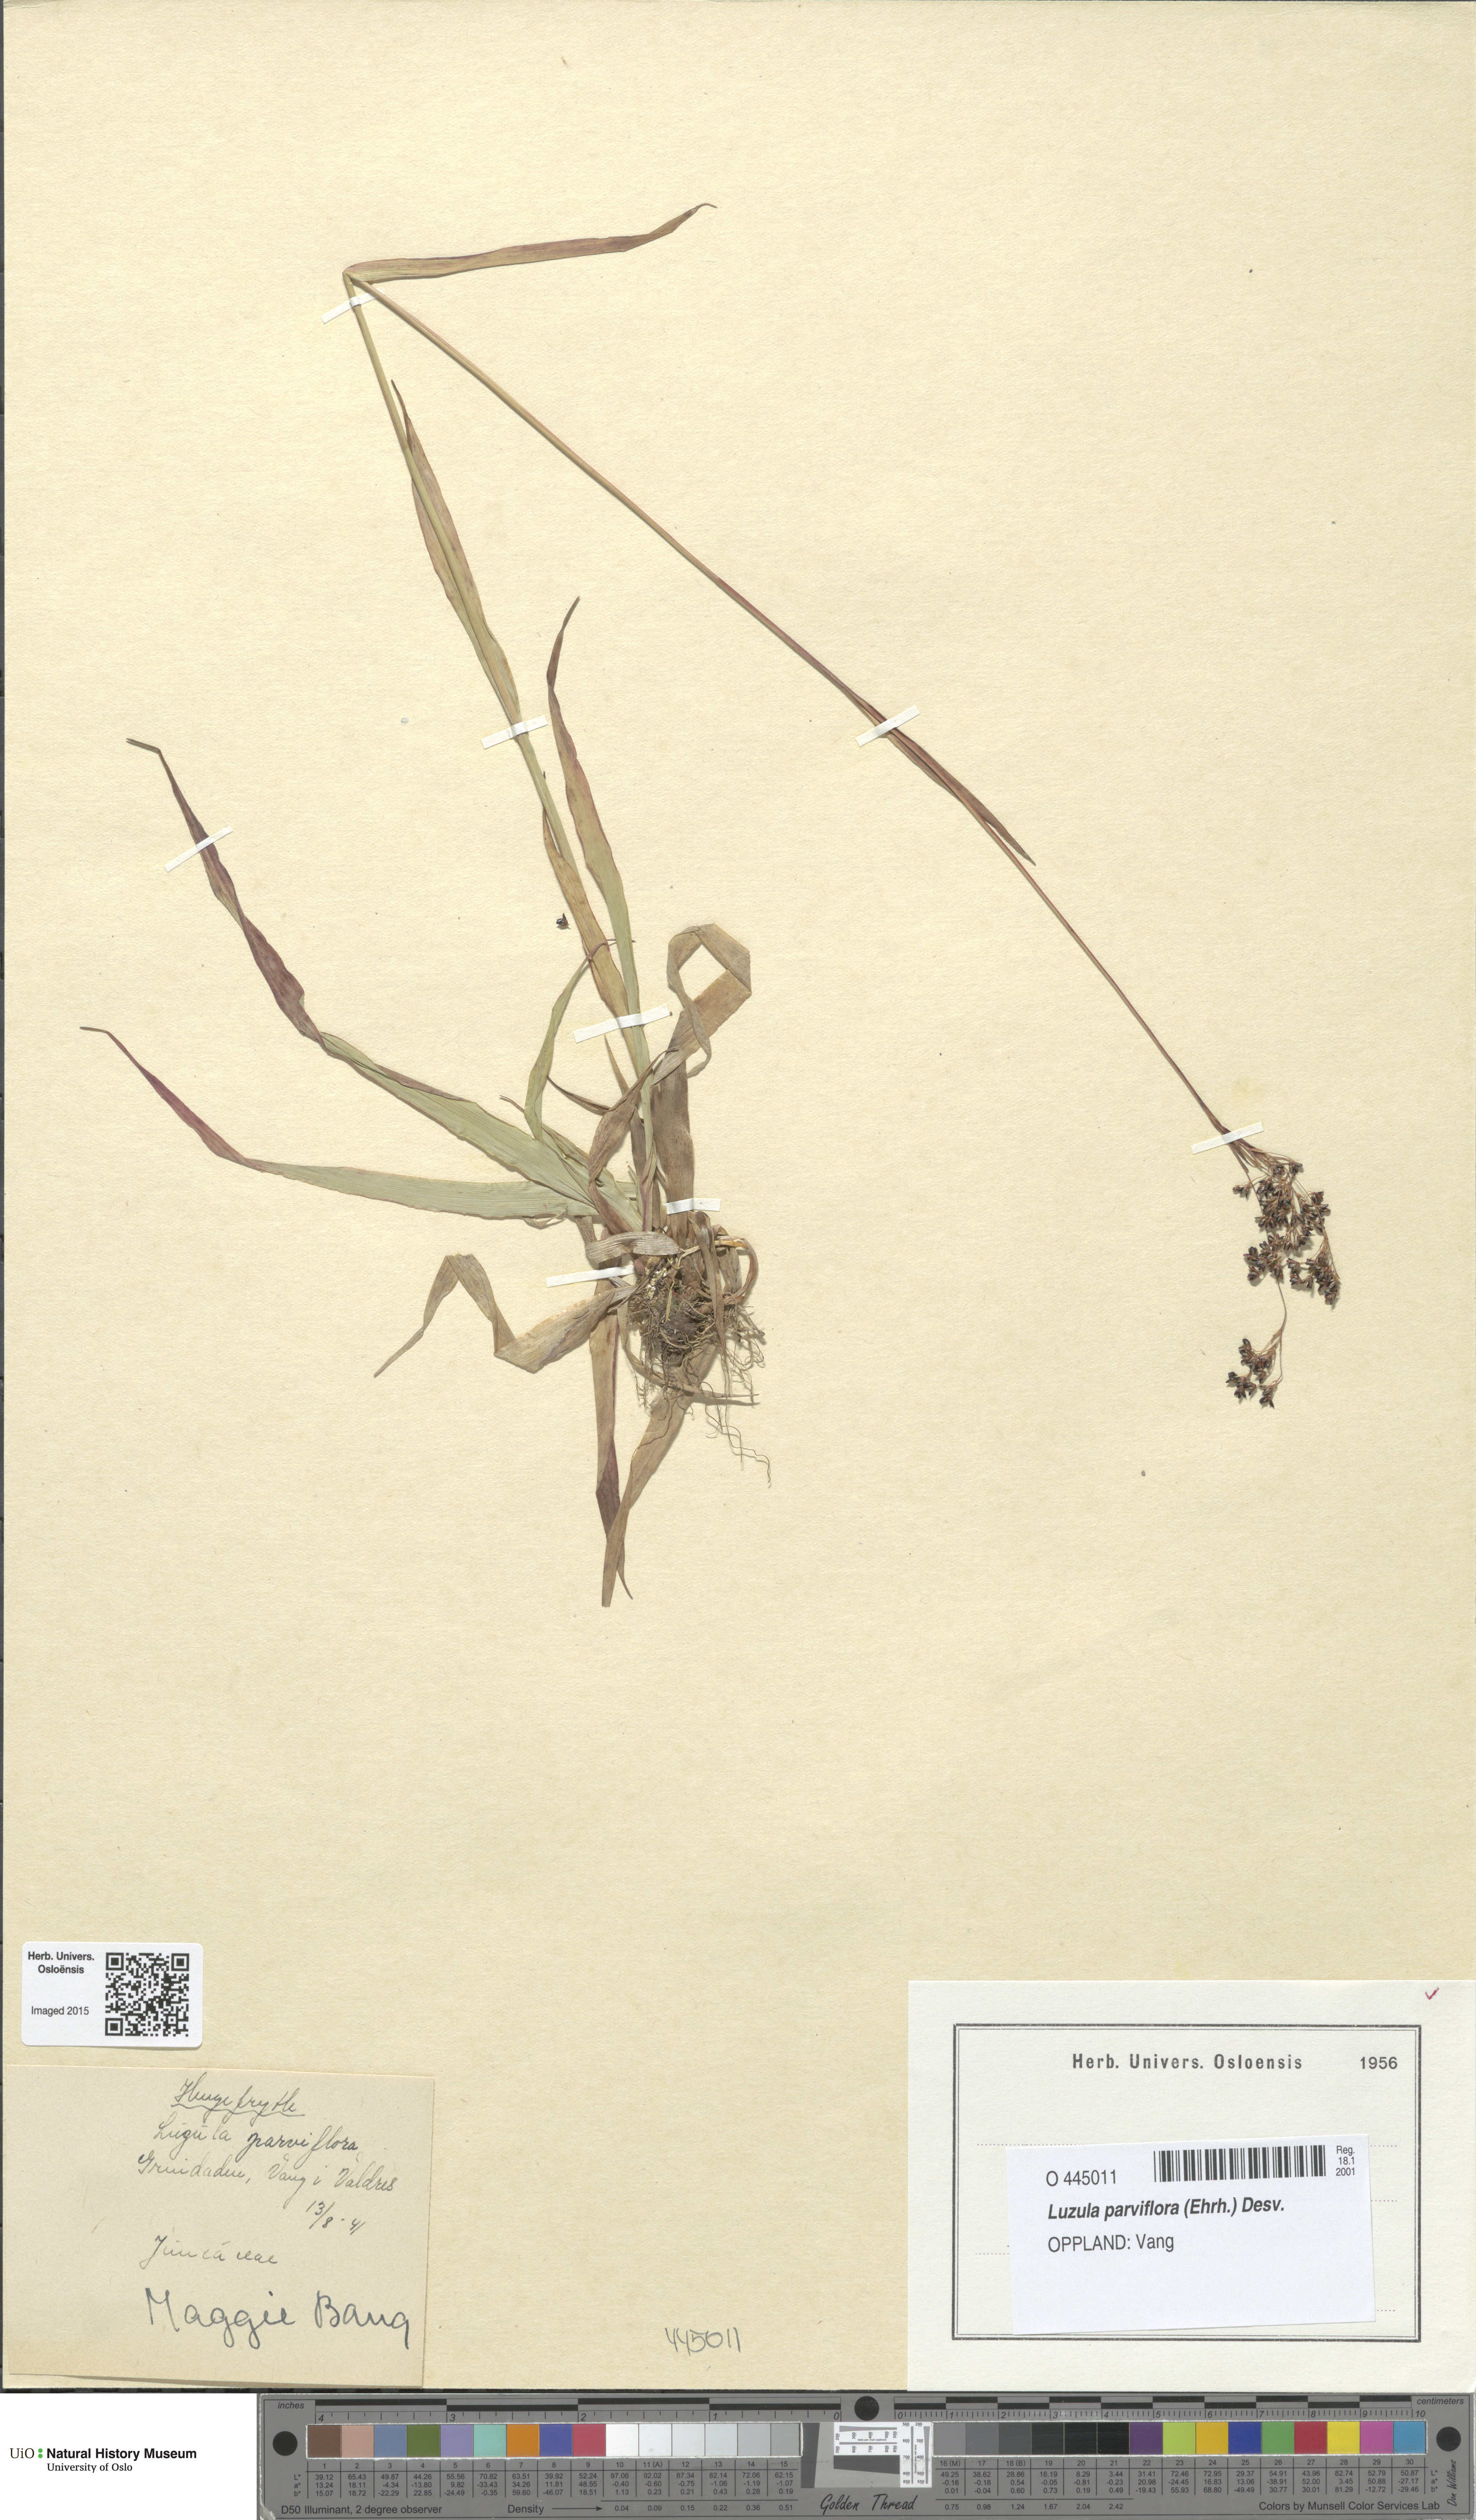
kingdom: Plantae
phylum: Tracheophyta
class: Liliopsida
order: Poales
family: Juncaceae
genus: Luzula
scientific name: Luzula parviflora
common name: Millet woodrush
